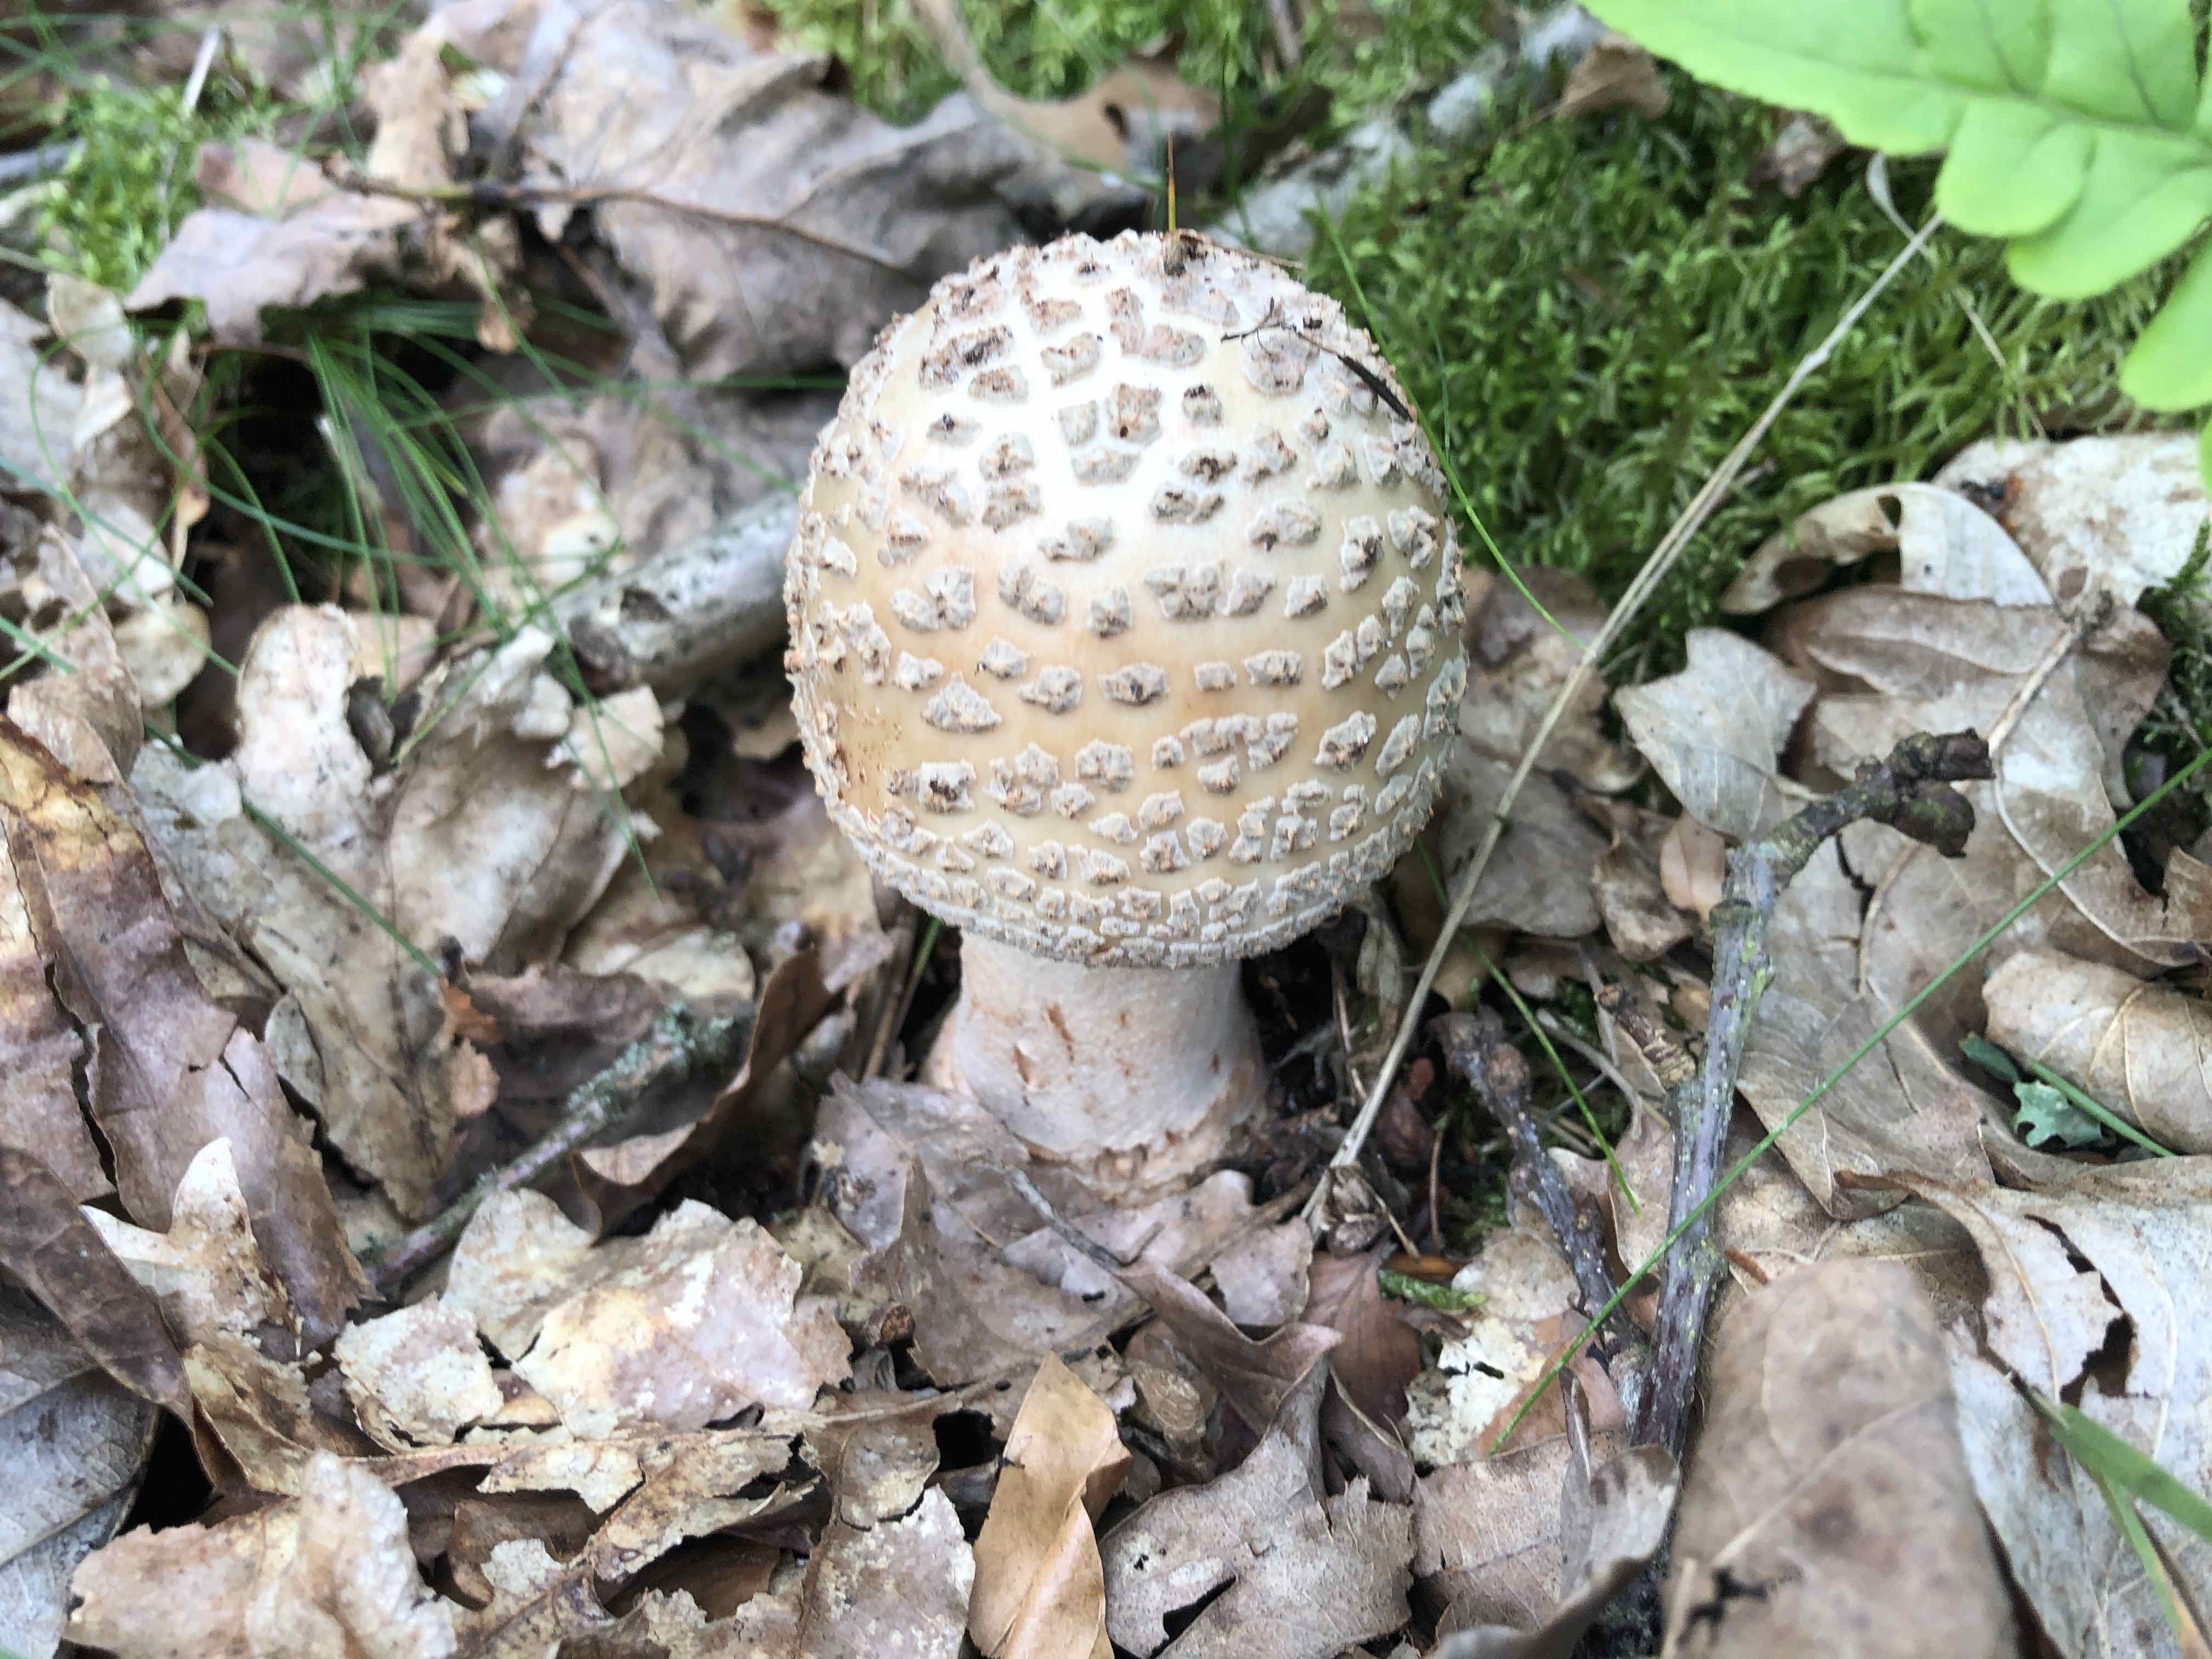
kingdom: Fungi
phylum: Basidiomycota
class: Agaricomycetes
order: Agaricales
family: Amanitaceae
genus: Amanita
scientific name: Amanita rubescens
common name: rødmende fluesvamp
